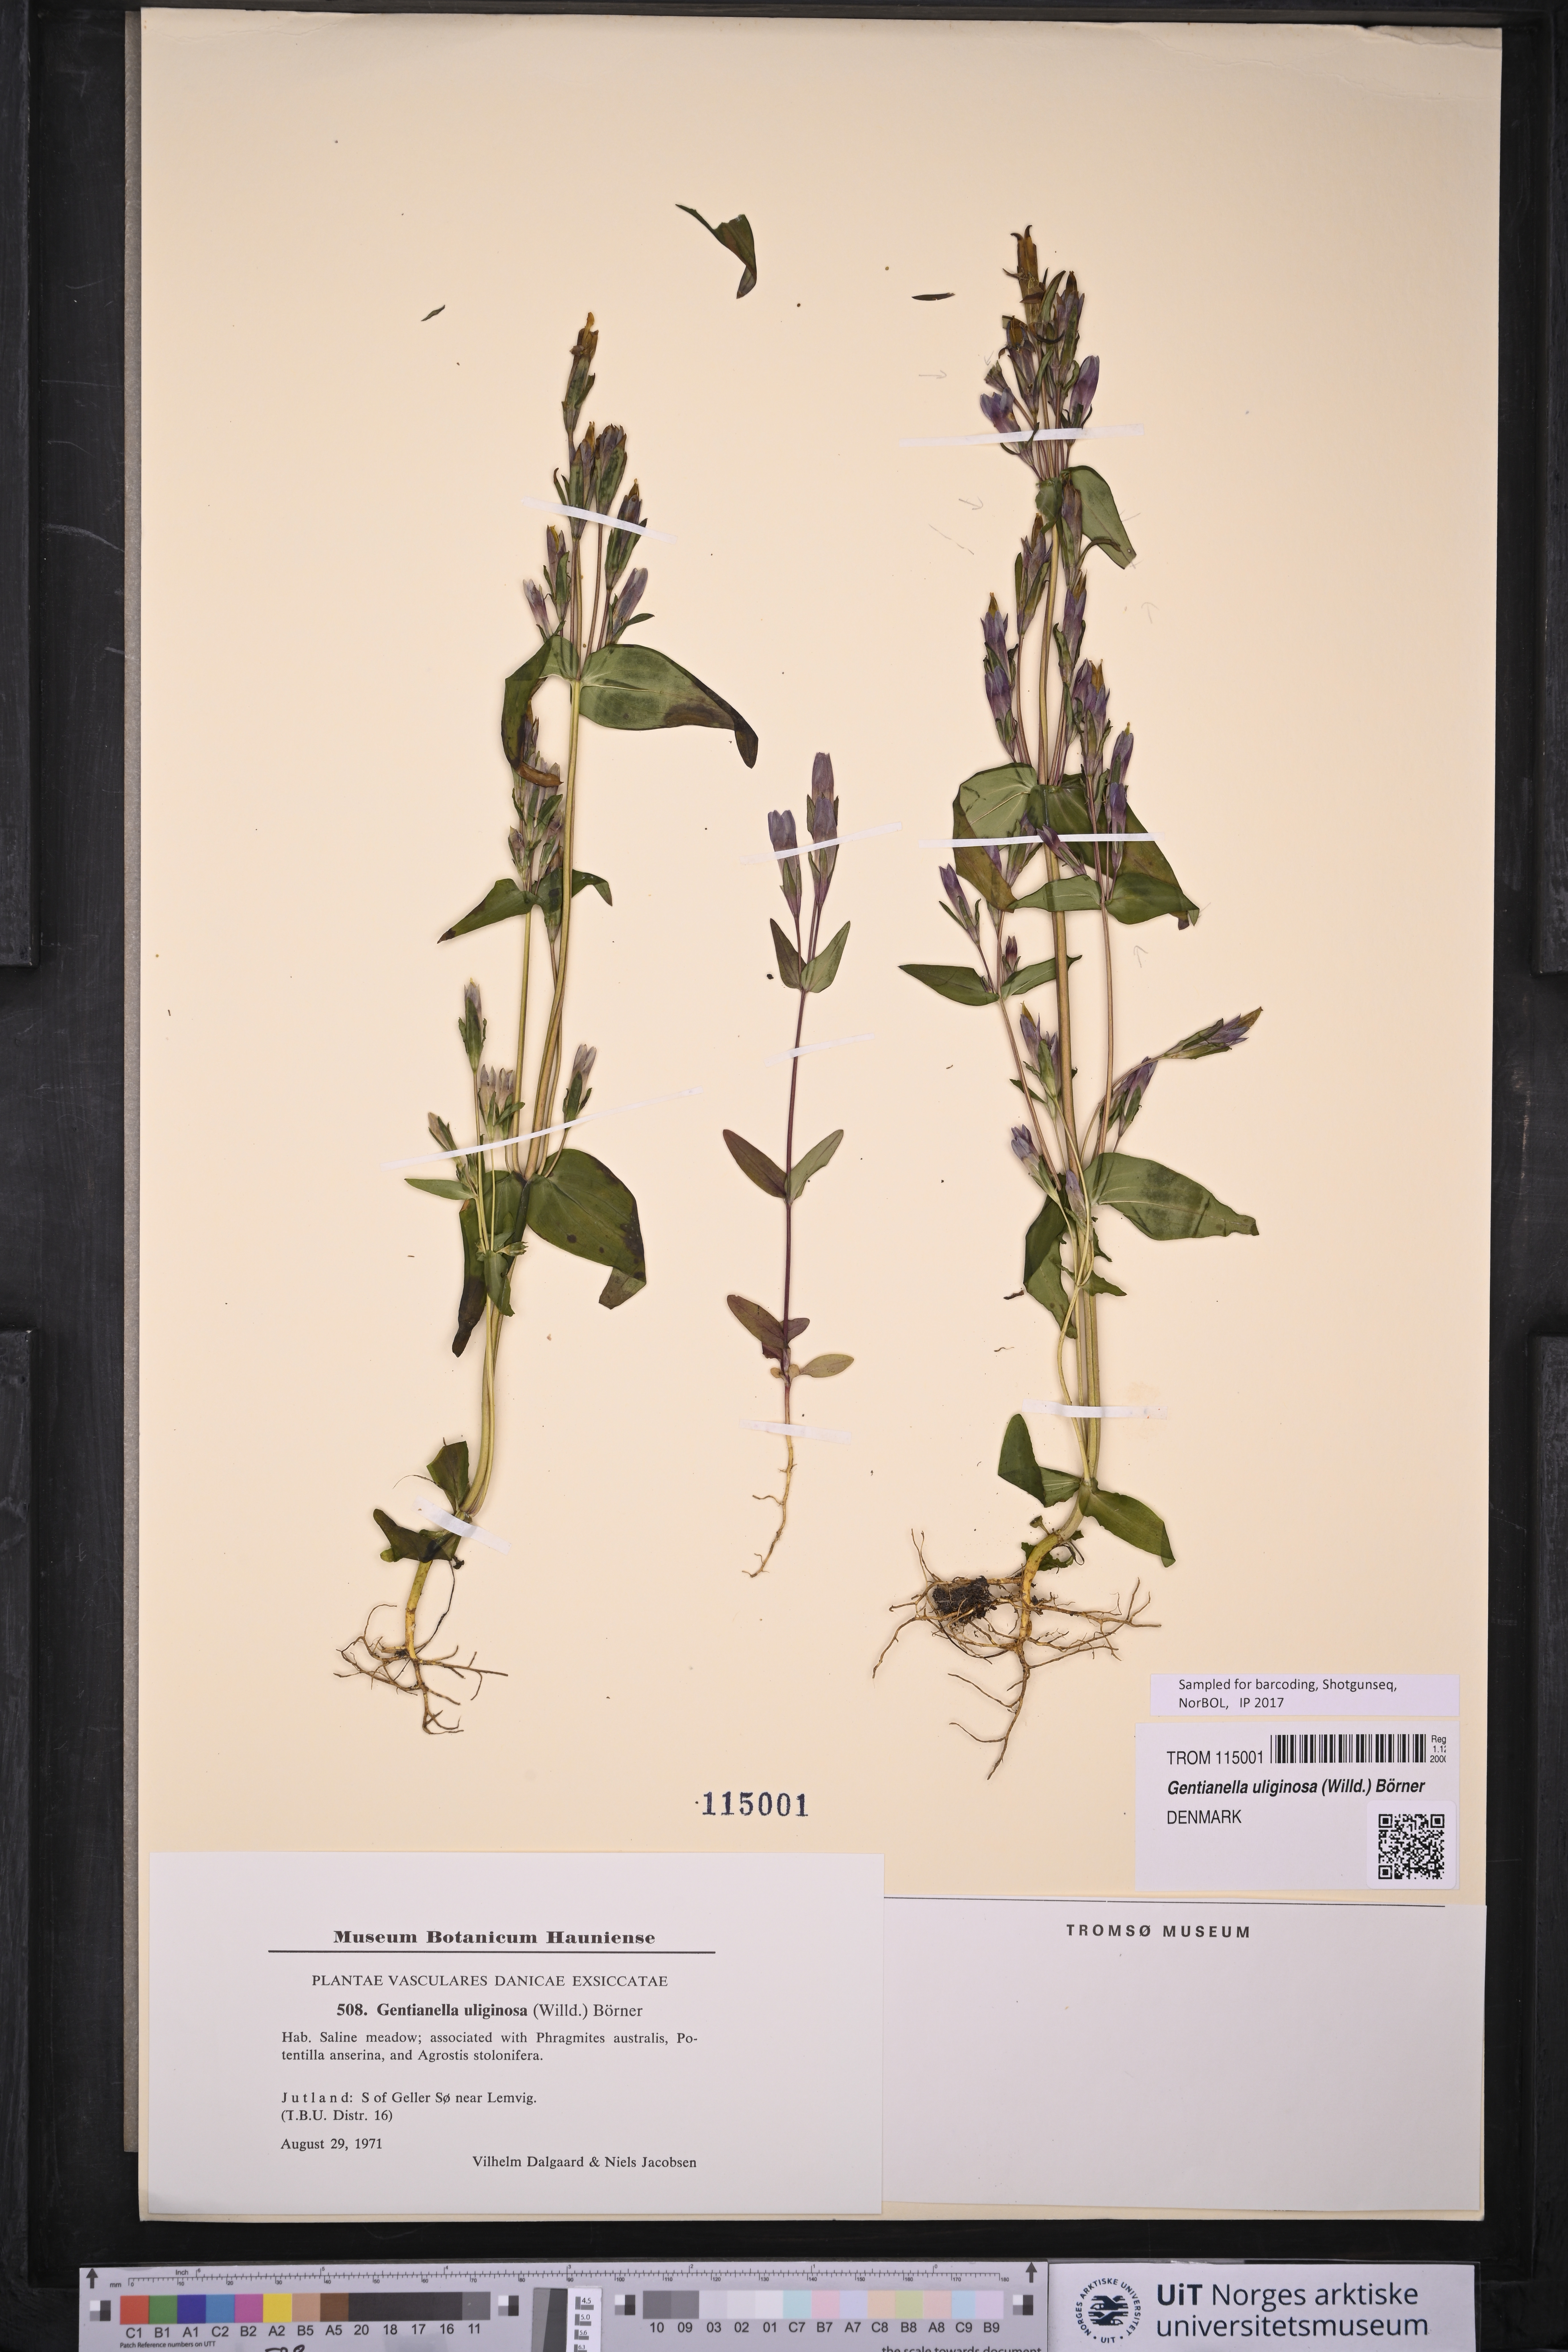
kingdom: Plantae
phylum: Tracheophyta
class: Magnoliopsida
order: Gentianales
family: Gentianaceae
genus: Gentianella
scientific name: Gentianella uliginosa
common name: Dune gentian
